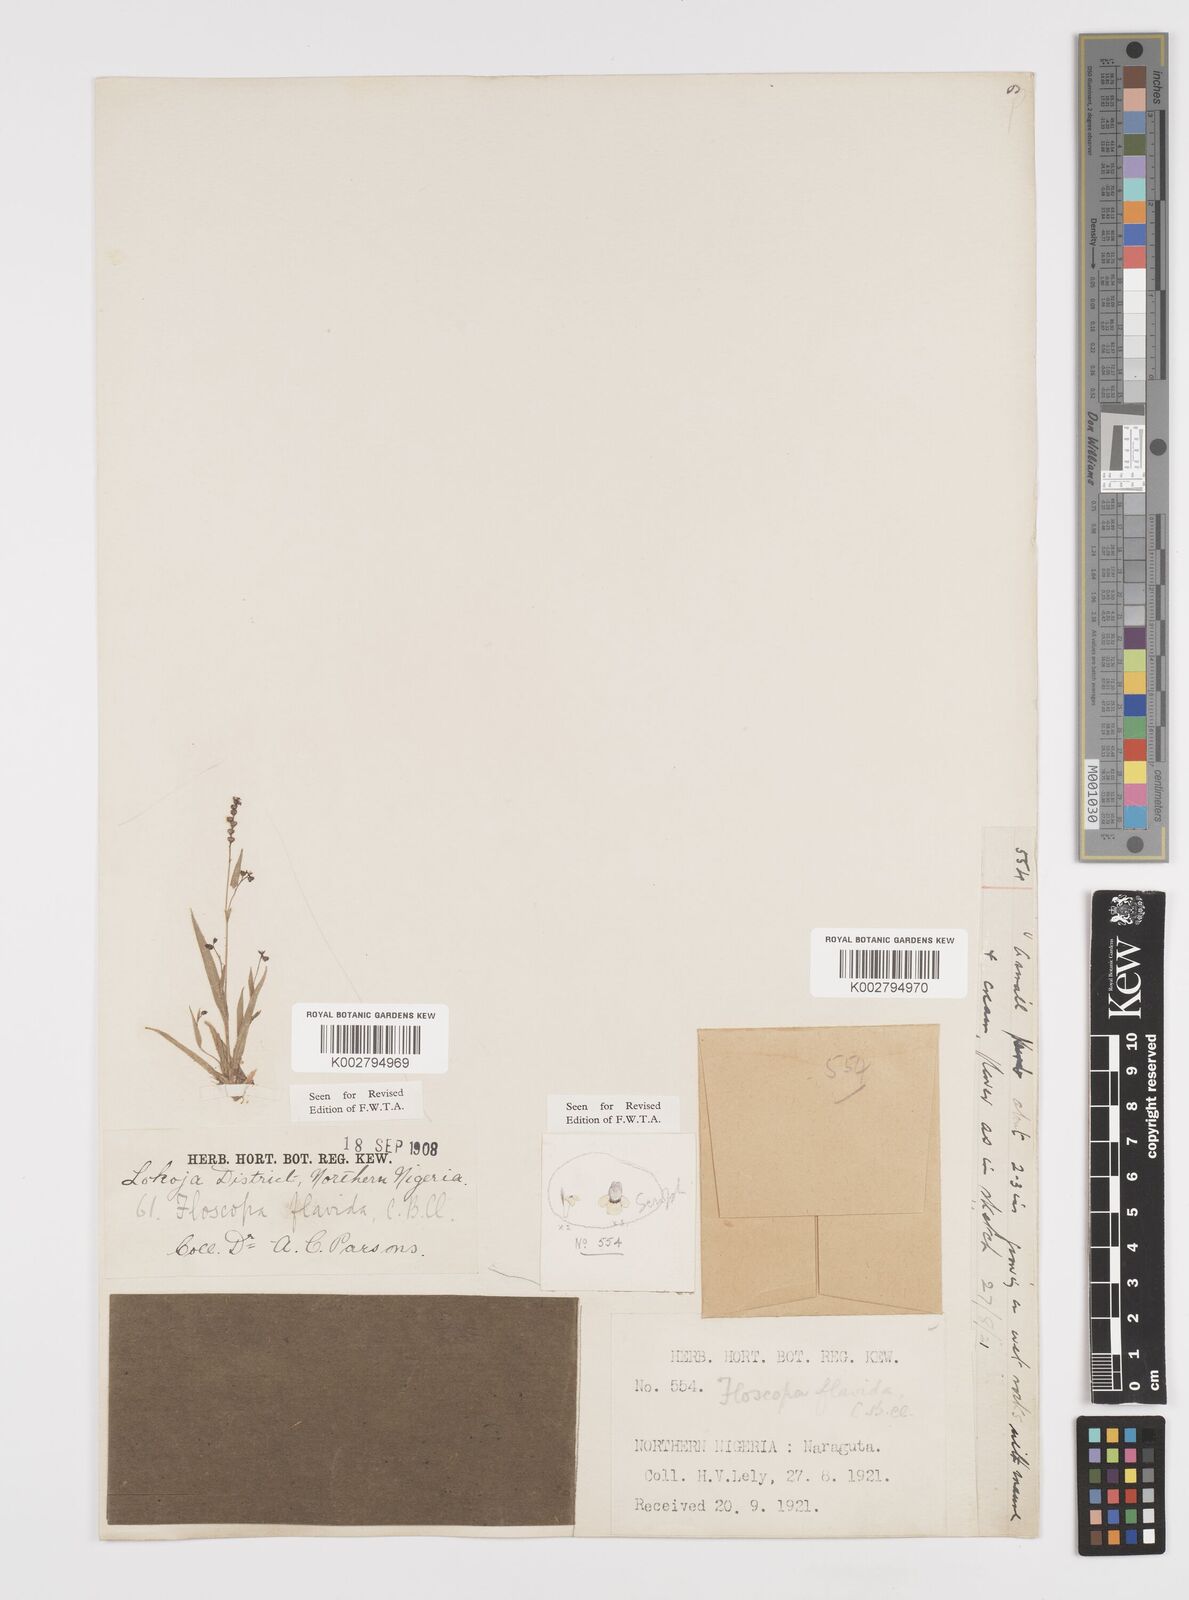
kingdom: Plantae
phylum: Tracheophyta
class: Liliopsida
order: Commelinales
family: Commelinaceae
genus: Floscopa
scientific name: Floscopa flavida
